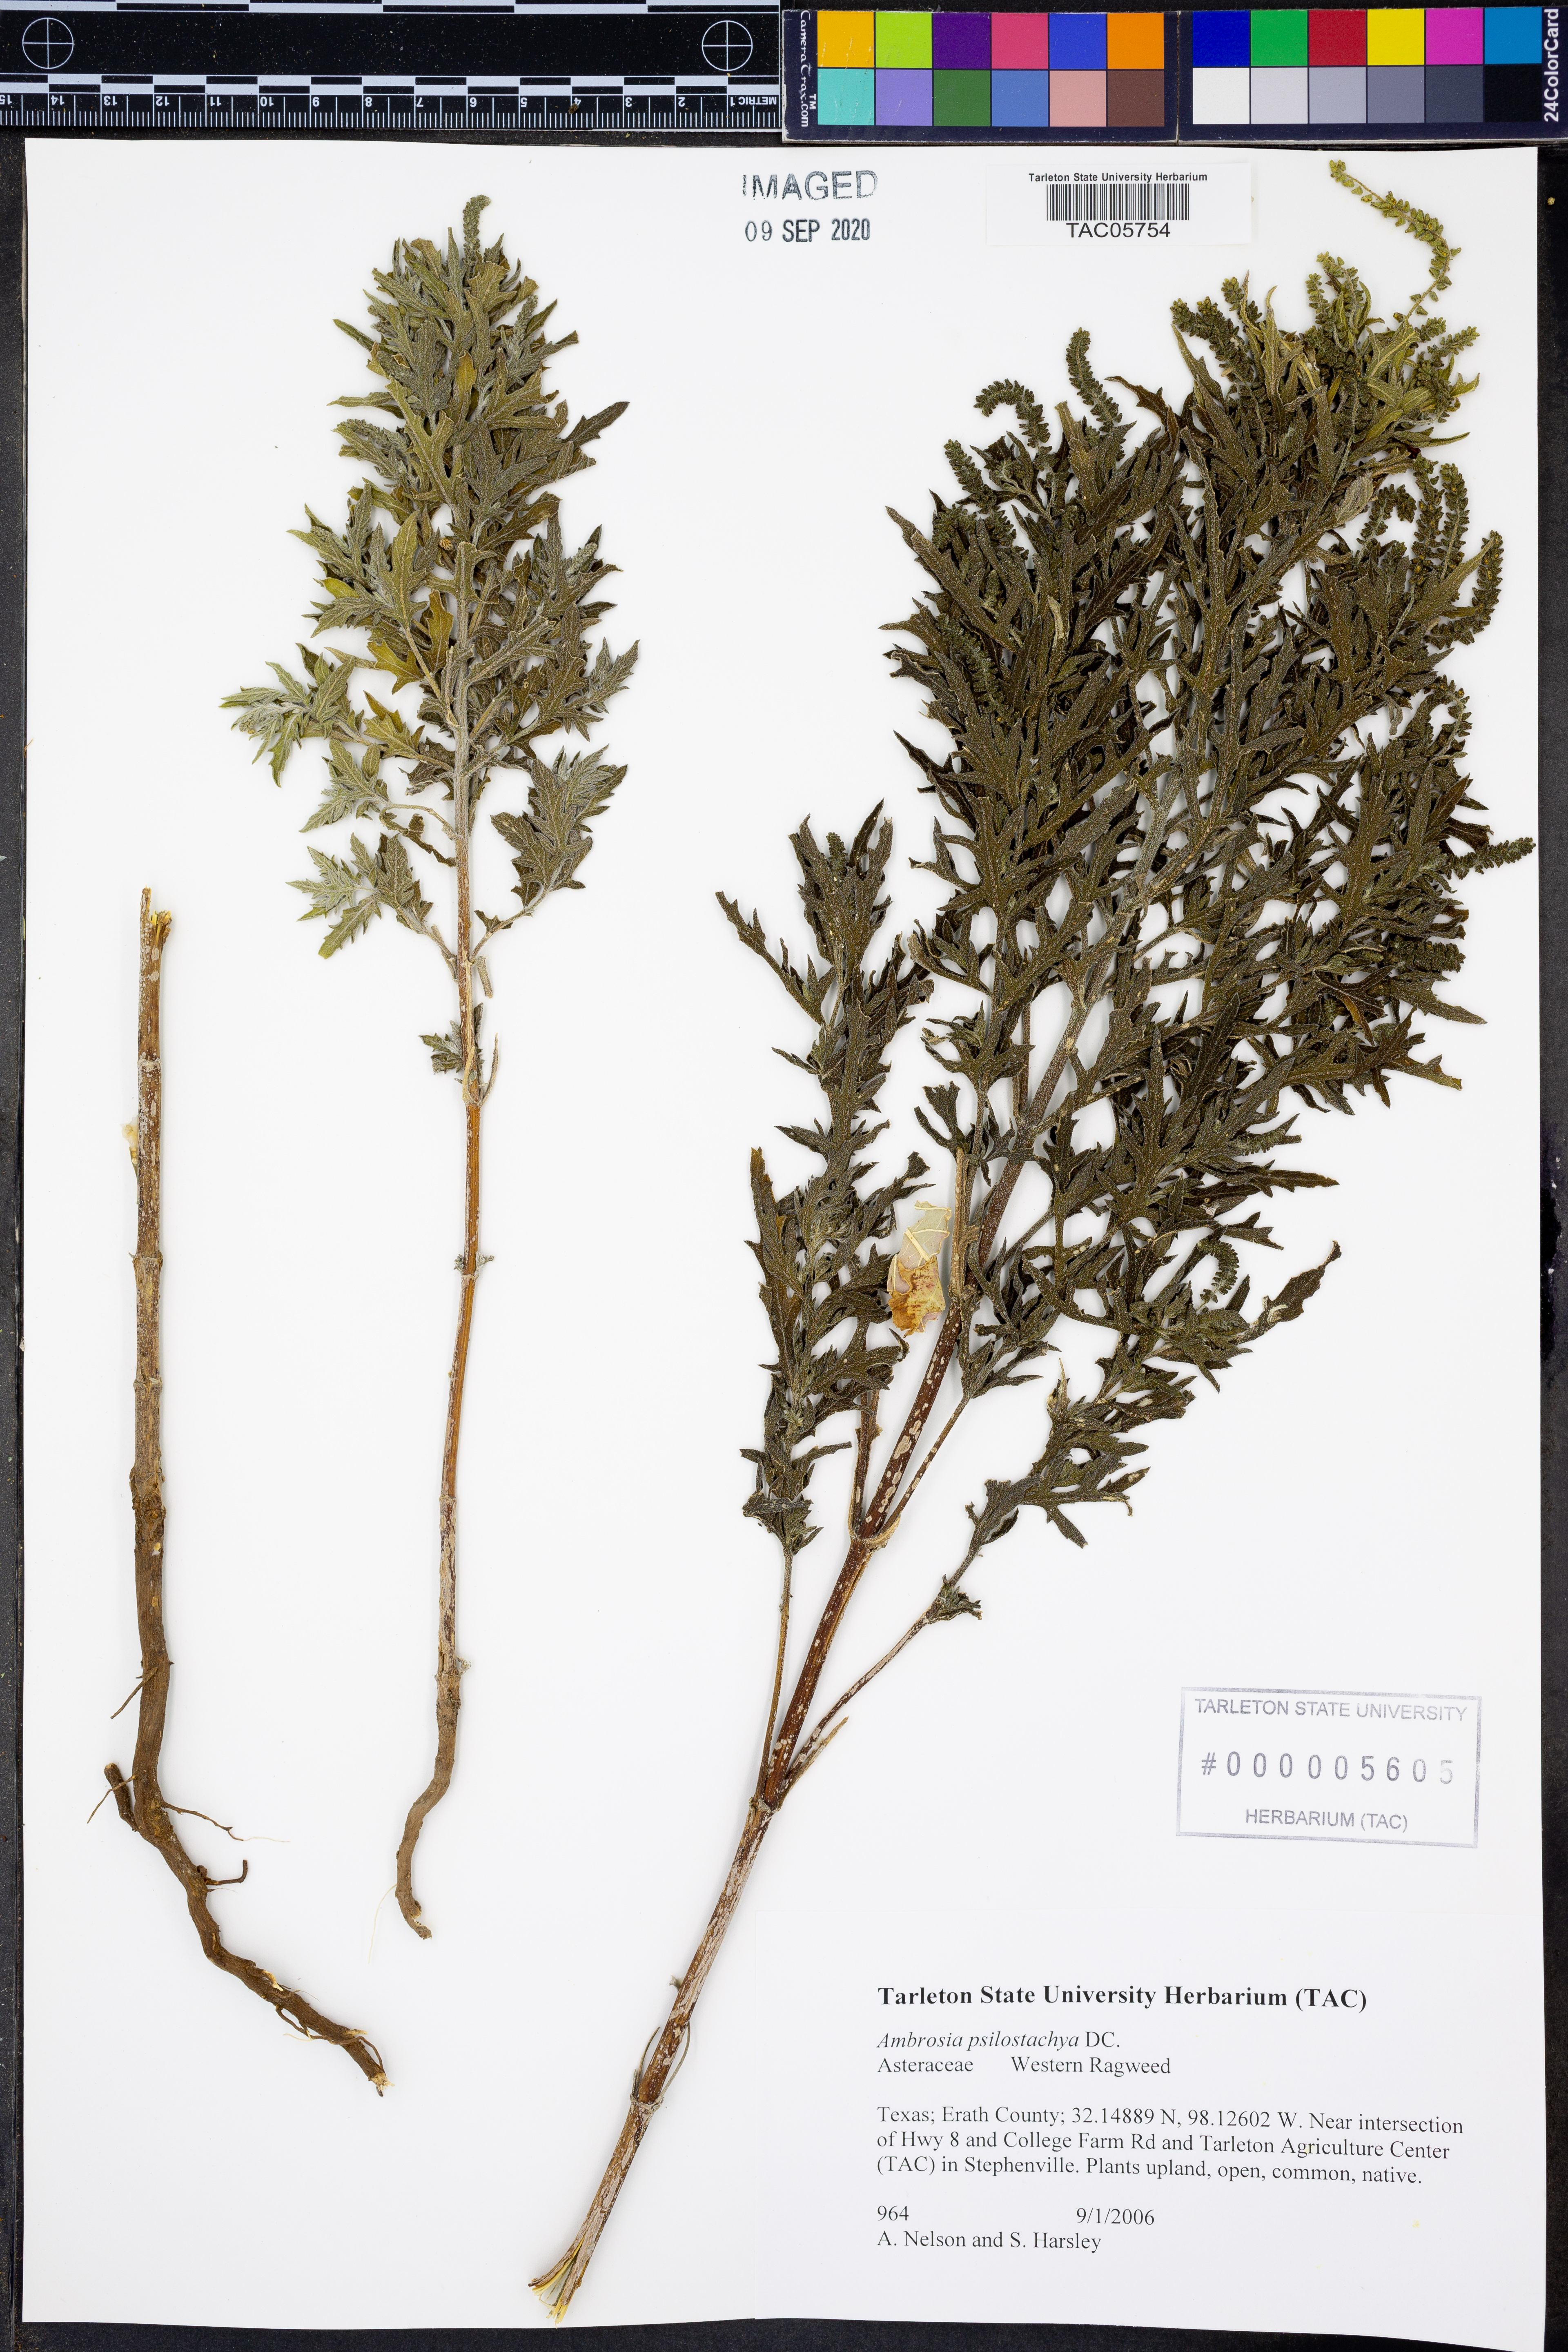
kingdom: Plantae
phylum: Tracheophyta
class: Magnoliopsida
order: Asterales
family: Asteraceae
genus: Ambrosia
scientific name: Ambrosia psilostachya
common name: Perennial ragweed
